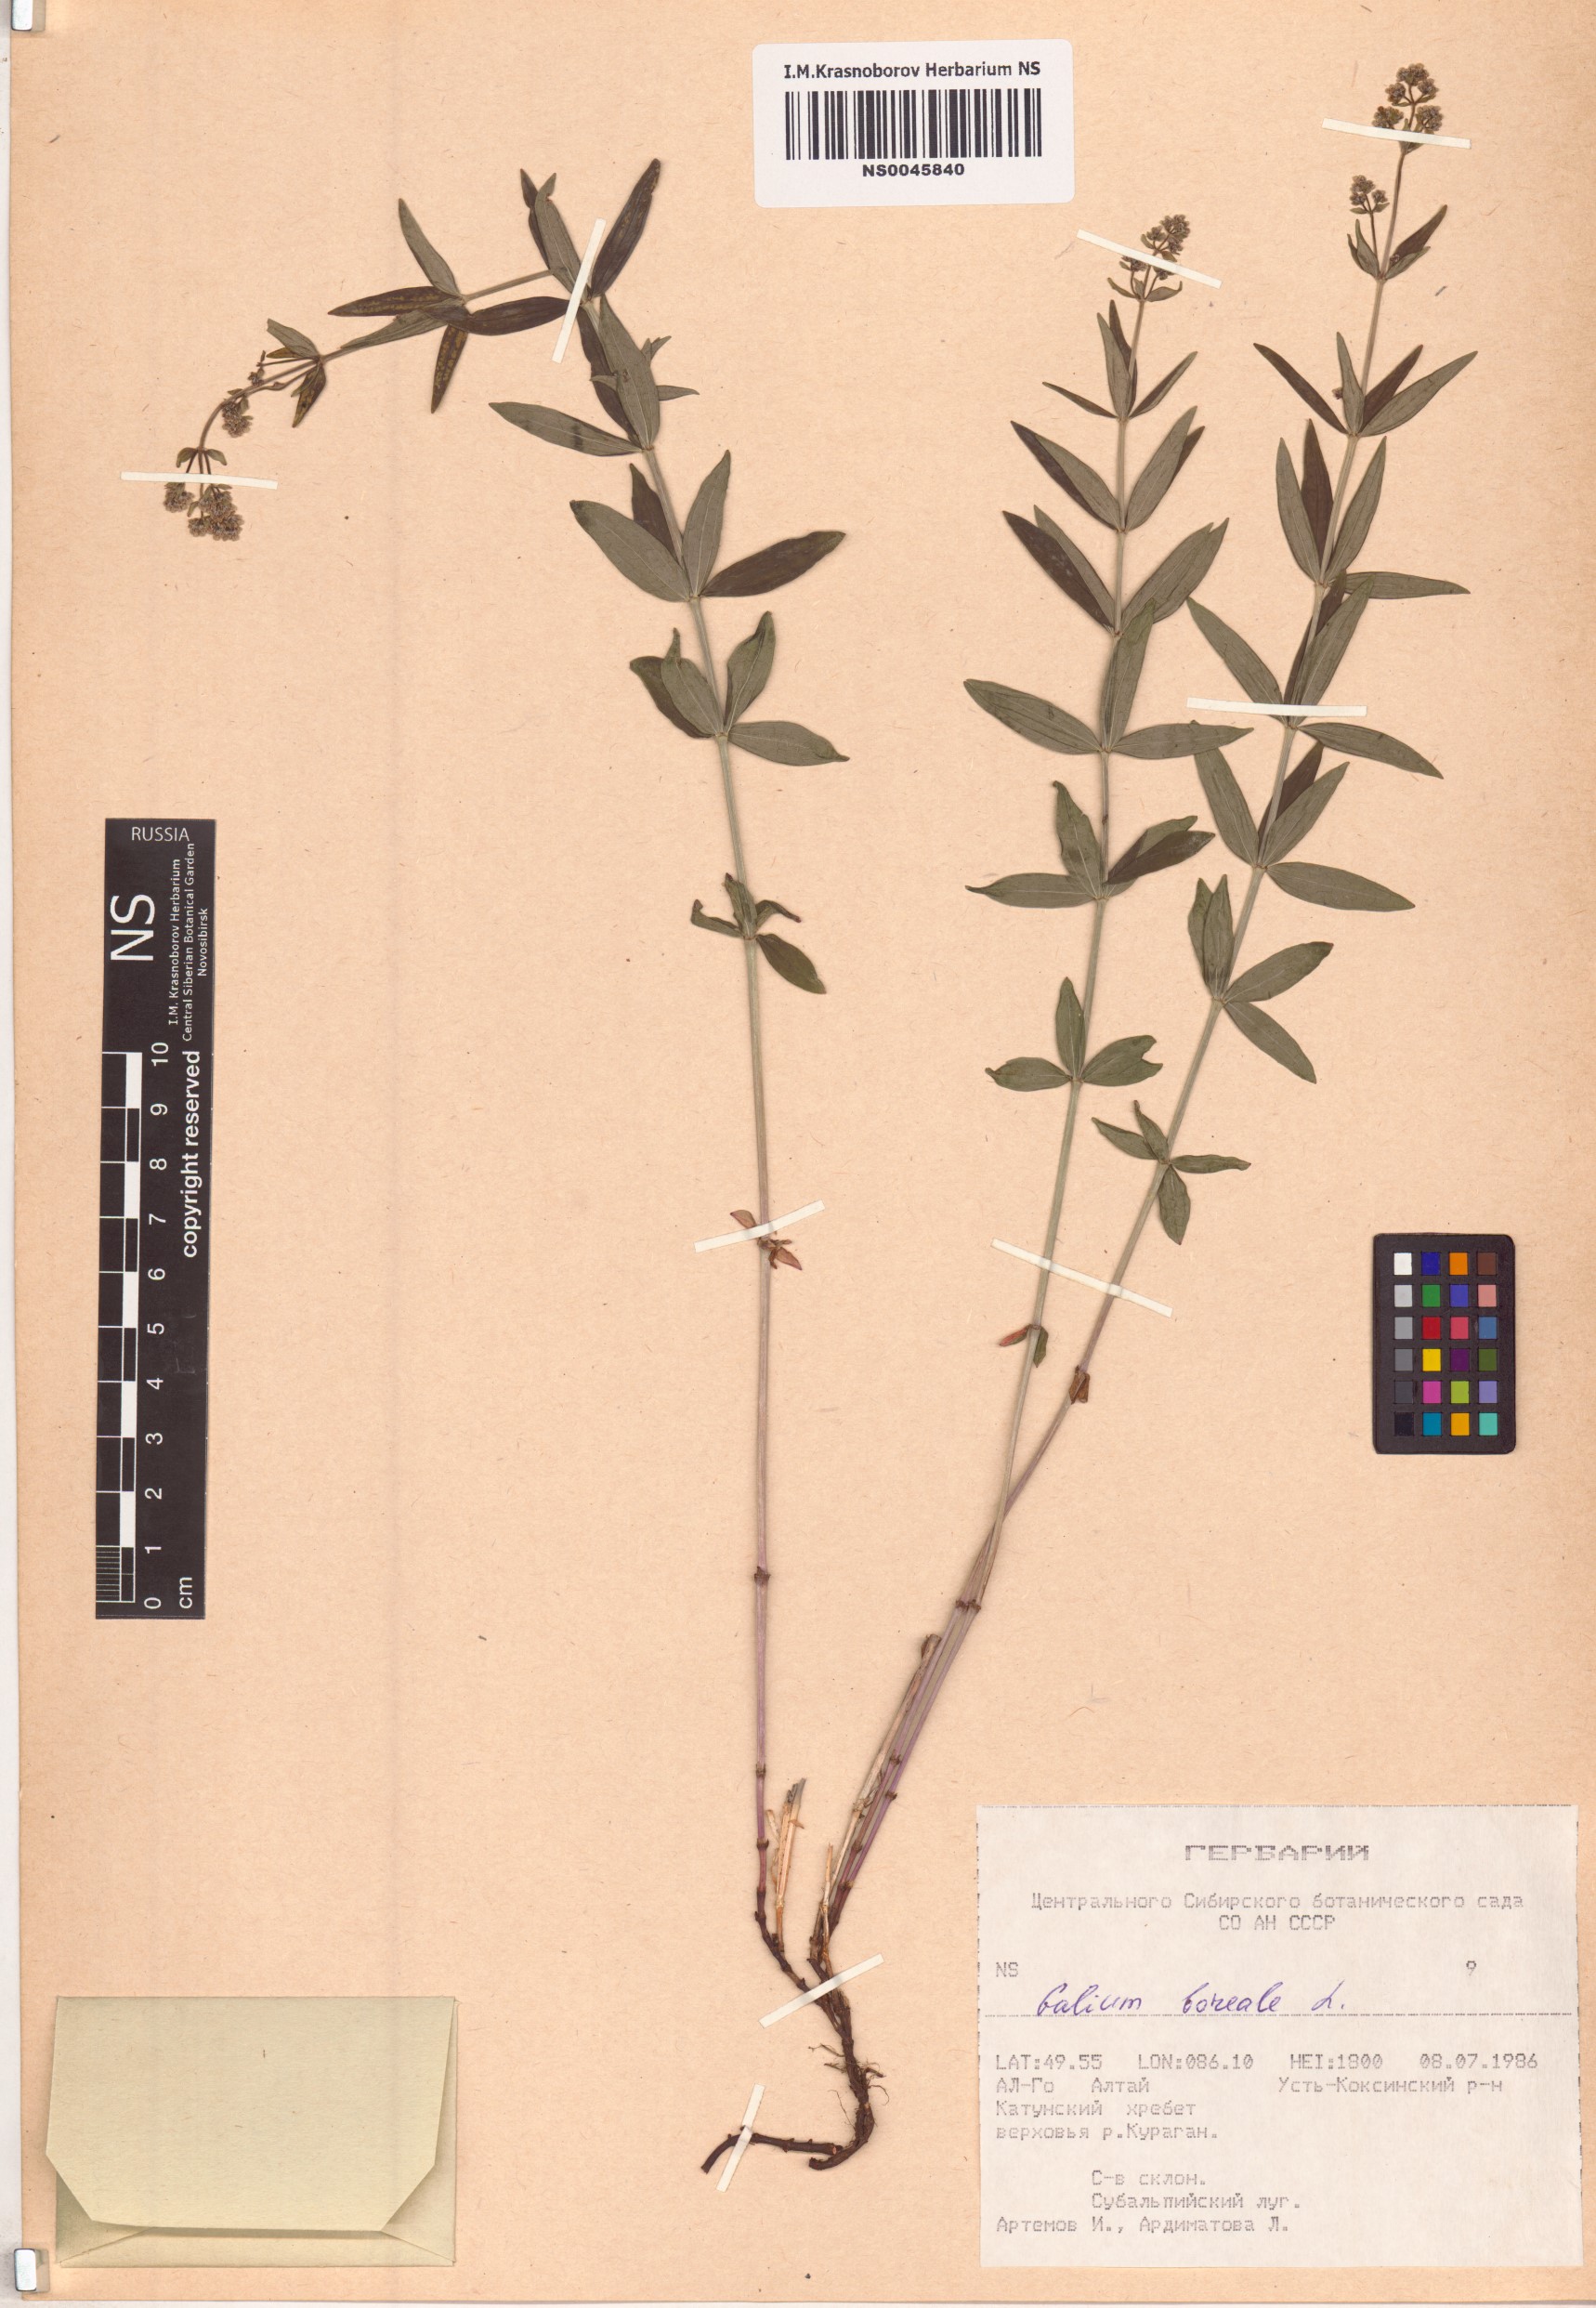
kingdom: Plantae
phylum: Tracheophyta
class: Magnoliopsida
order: Gentianales
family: Rubiaceae
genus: Galium
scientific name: Galium boreale
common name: Northern bedstraw
